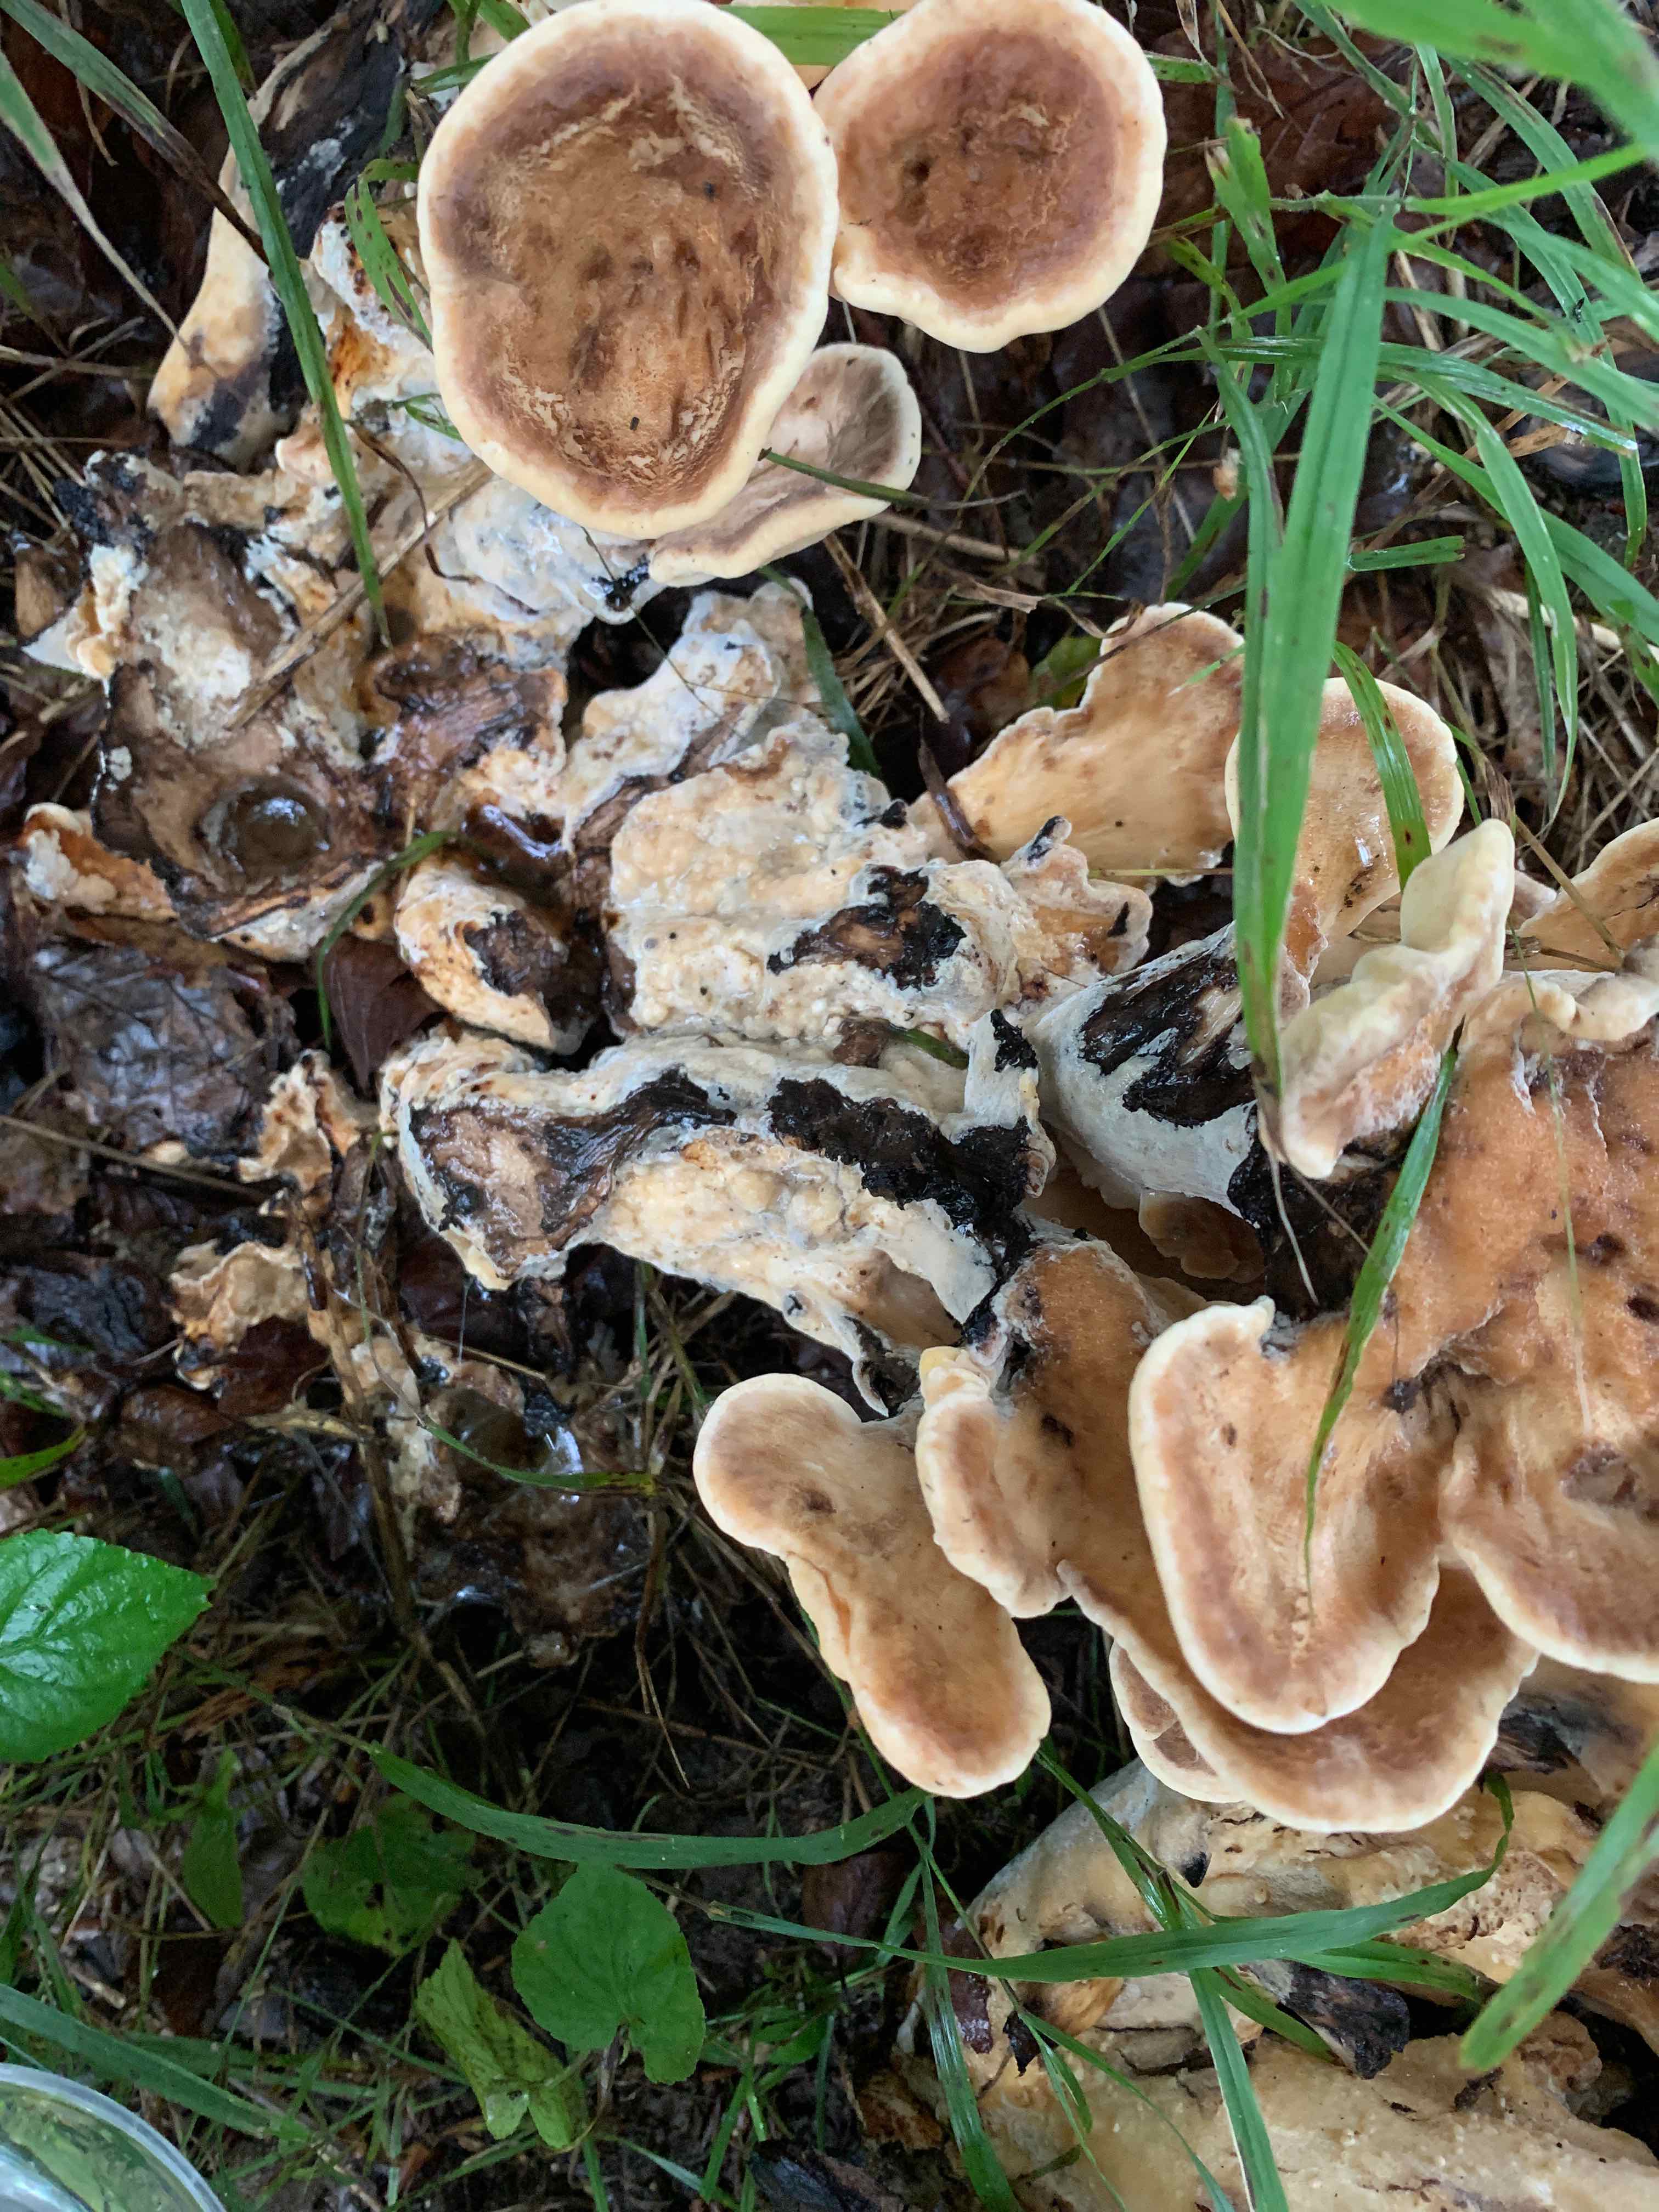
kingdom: Fungi
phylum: Basidiomycota
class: Agaricomycetes
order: Polyporales
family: Meripilaceae
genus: Meripilus
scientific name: Meripilus giganteus
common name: kæmpeporesvamp
